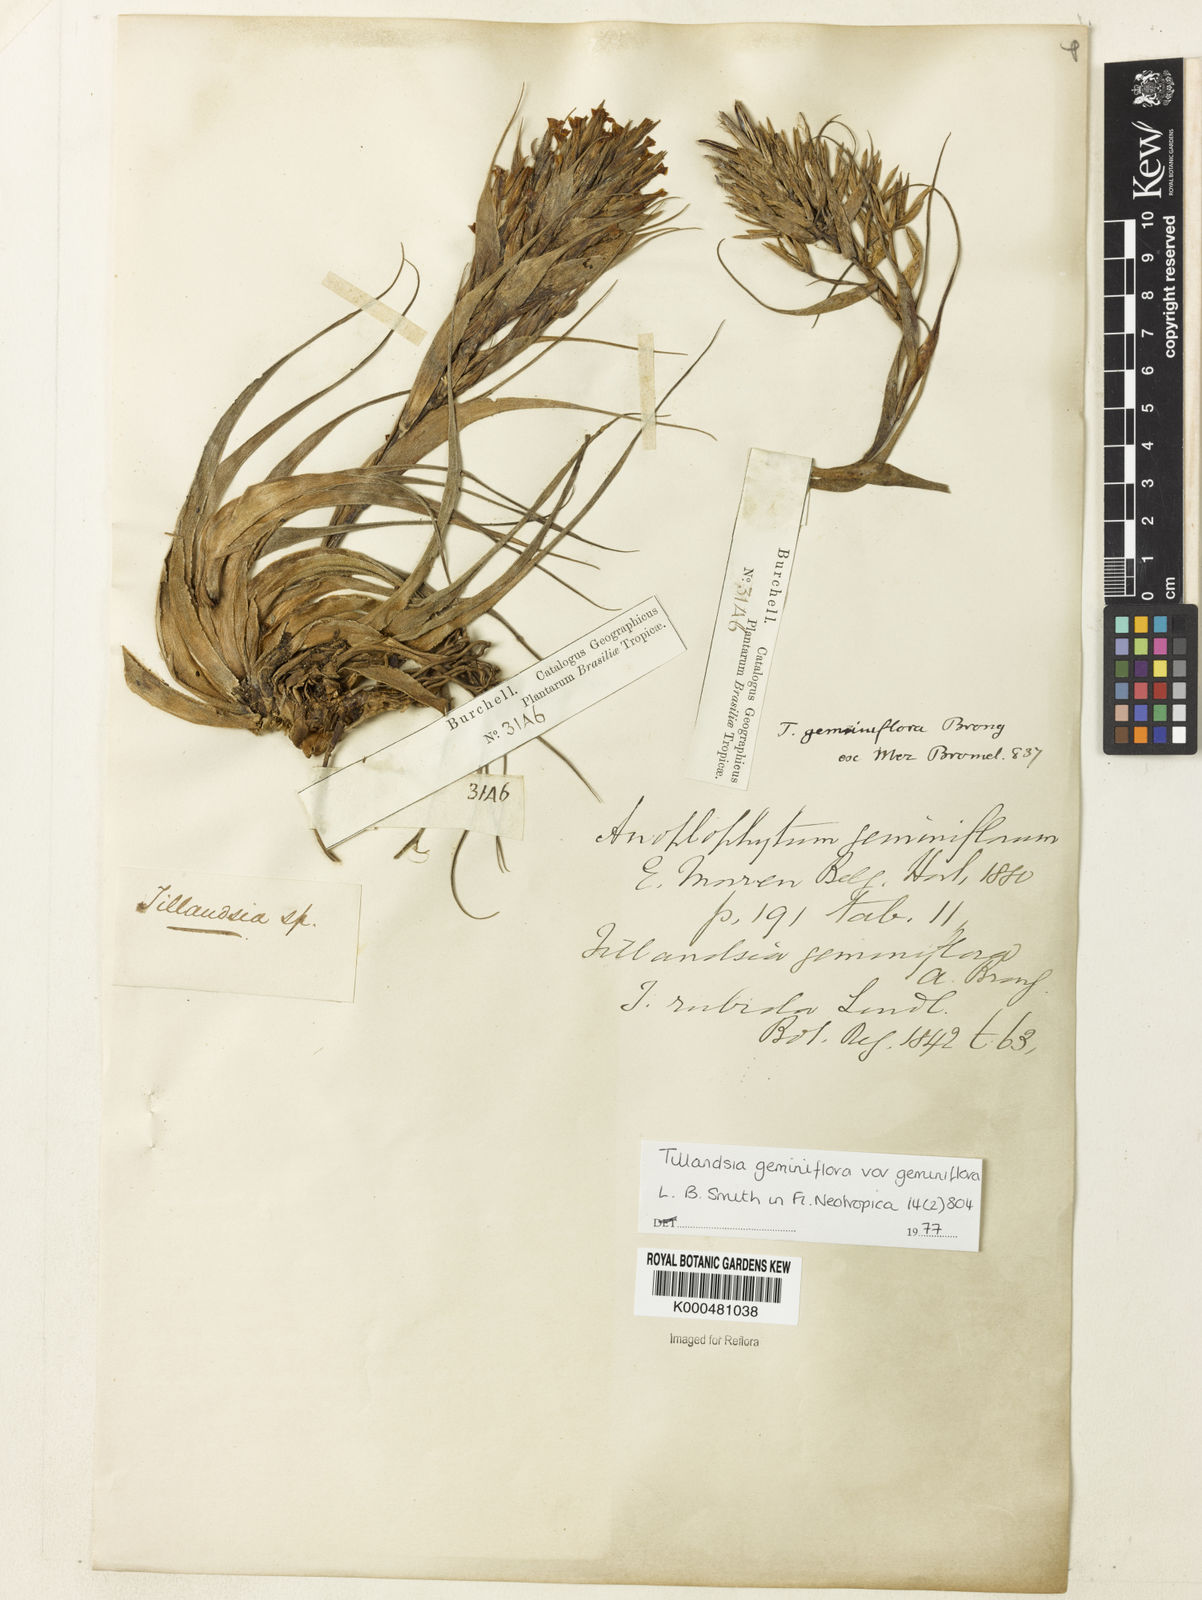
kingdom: Plantae
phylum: Tracheophyta
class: Liliopsida
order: Poales
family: Bromeliaceae
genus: Tillandsia
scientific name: Tillandsia geminiflora
